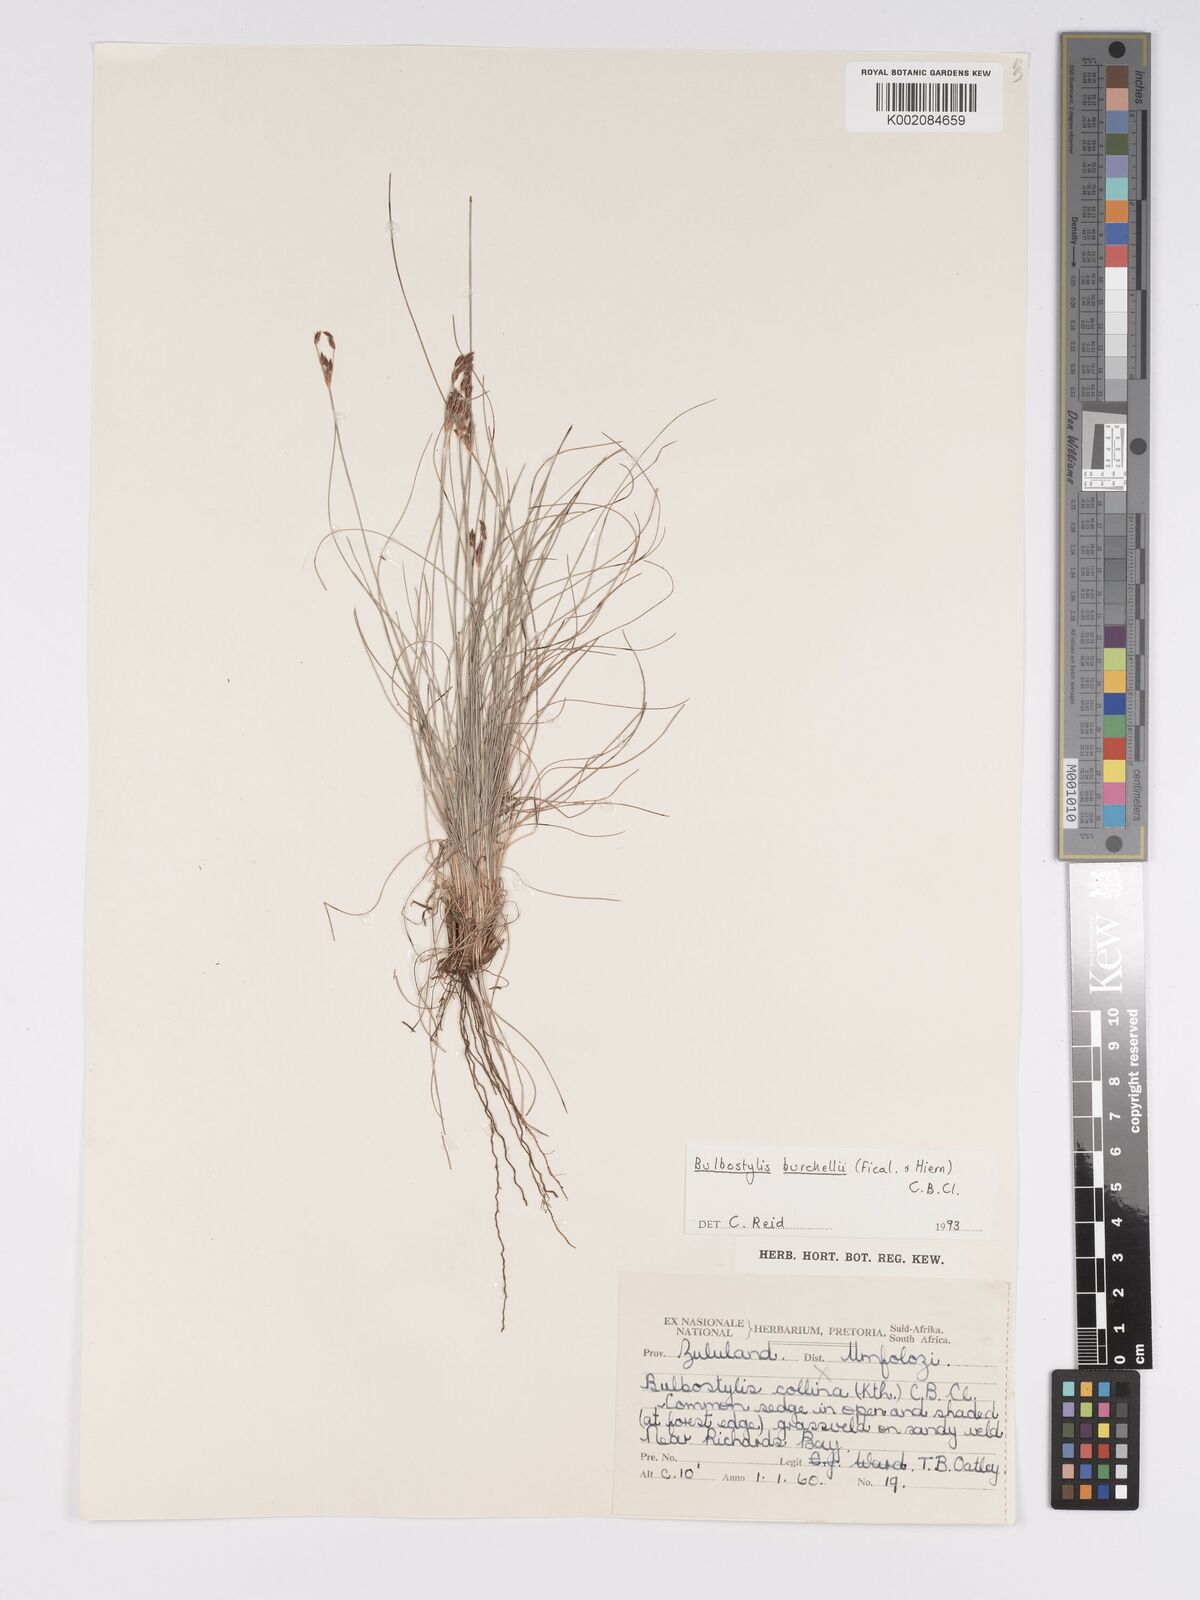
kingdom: Plantae
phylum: Tracheophyta
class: Liliopsida
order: Poales
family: Cyperaceae
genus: Bulbostylis
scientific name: Bulbostylis burchellii
